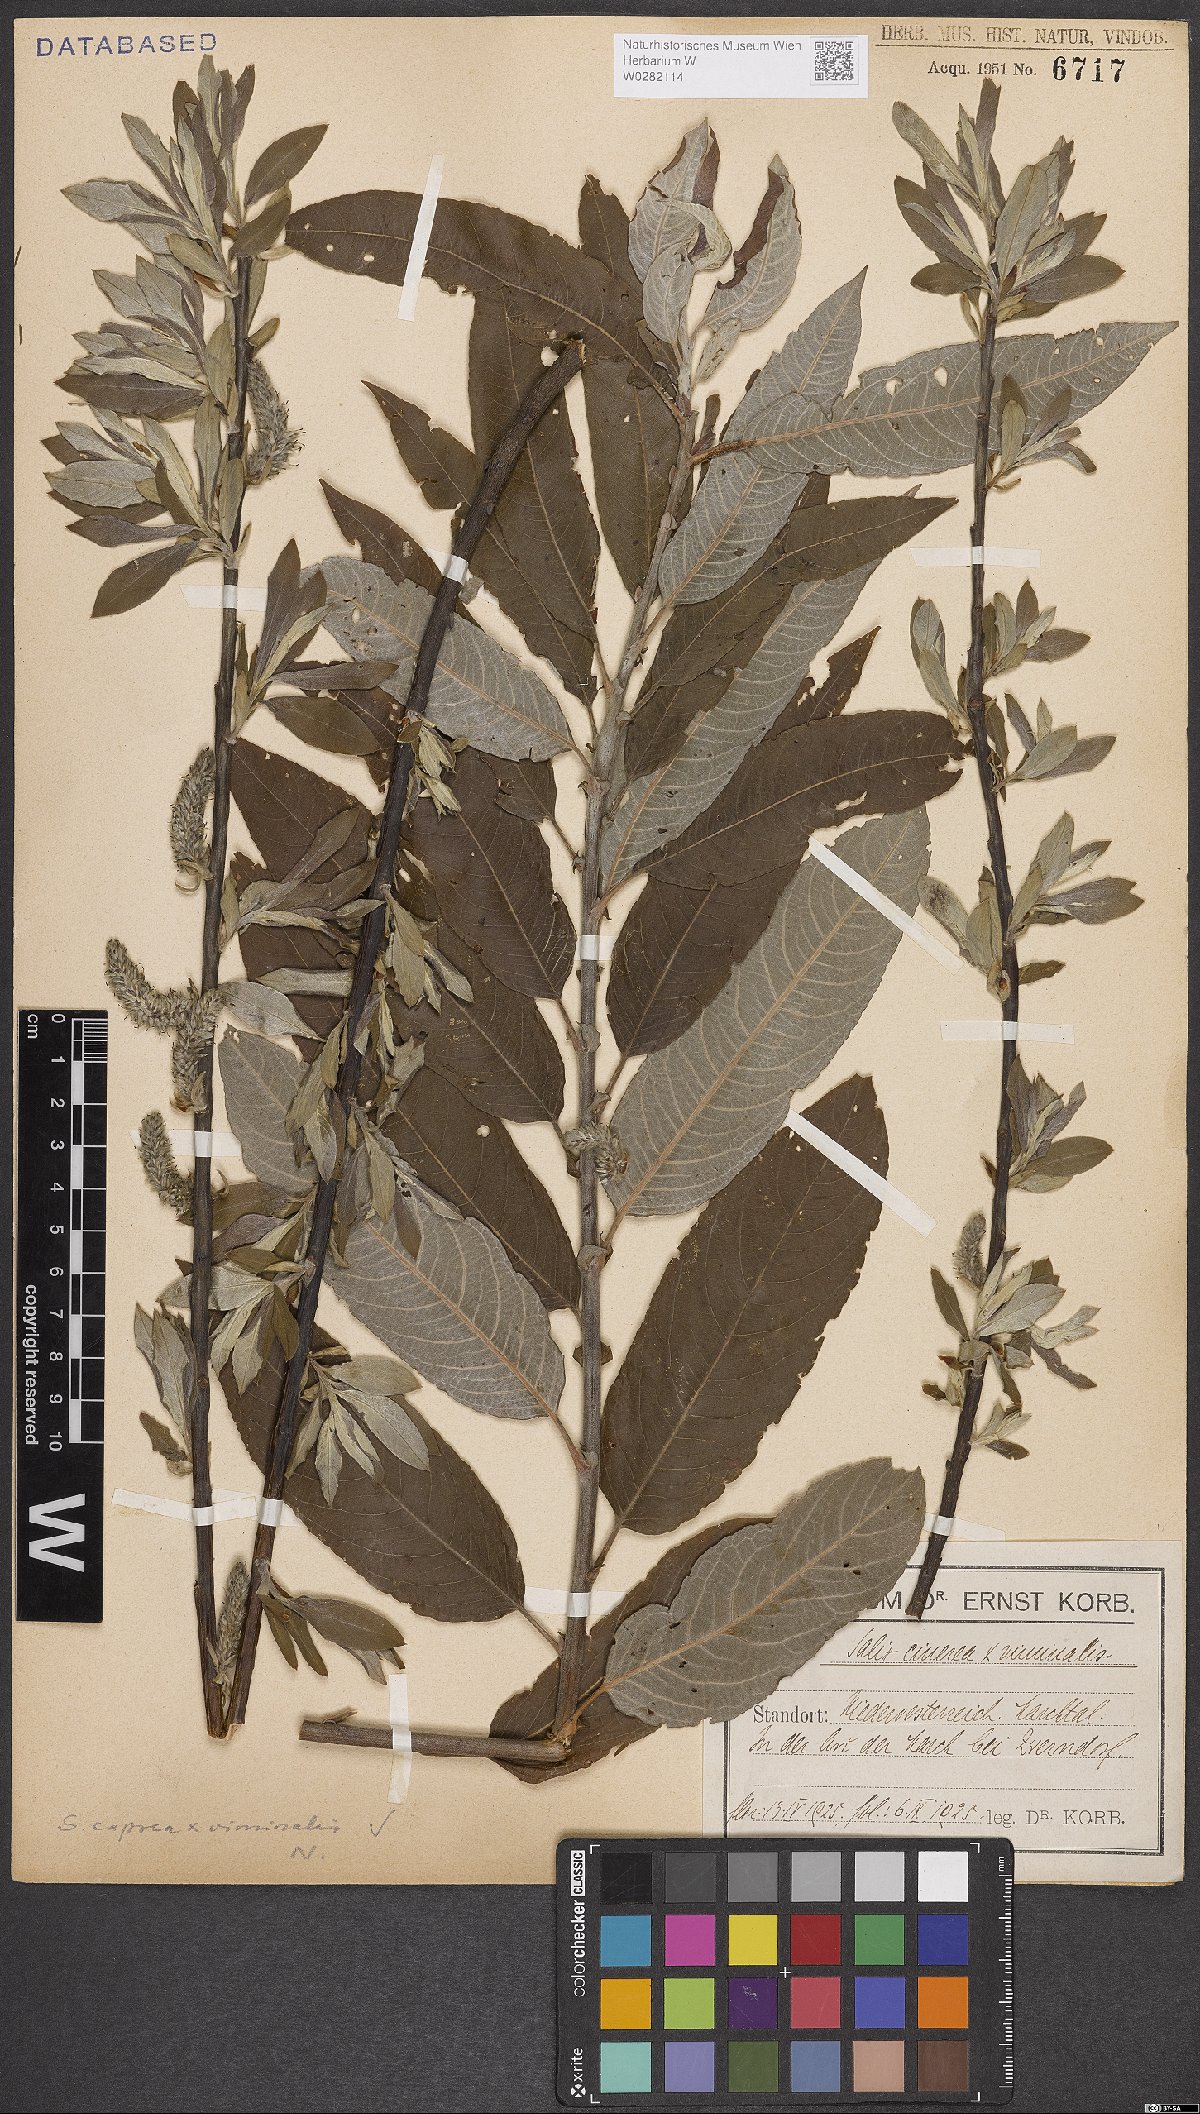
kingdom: Plantae
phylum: Tracheophyta
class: Magnoliopsida
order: Malpighiales
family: Salicaceae
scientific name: Salicaceae
